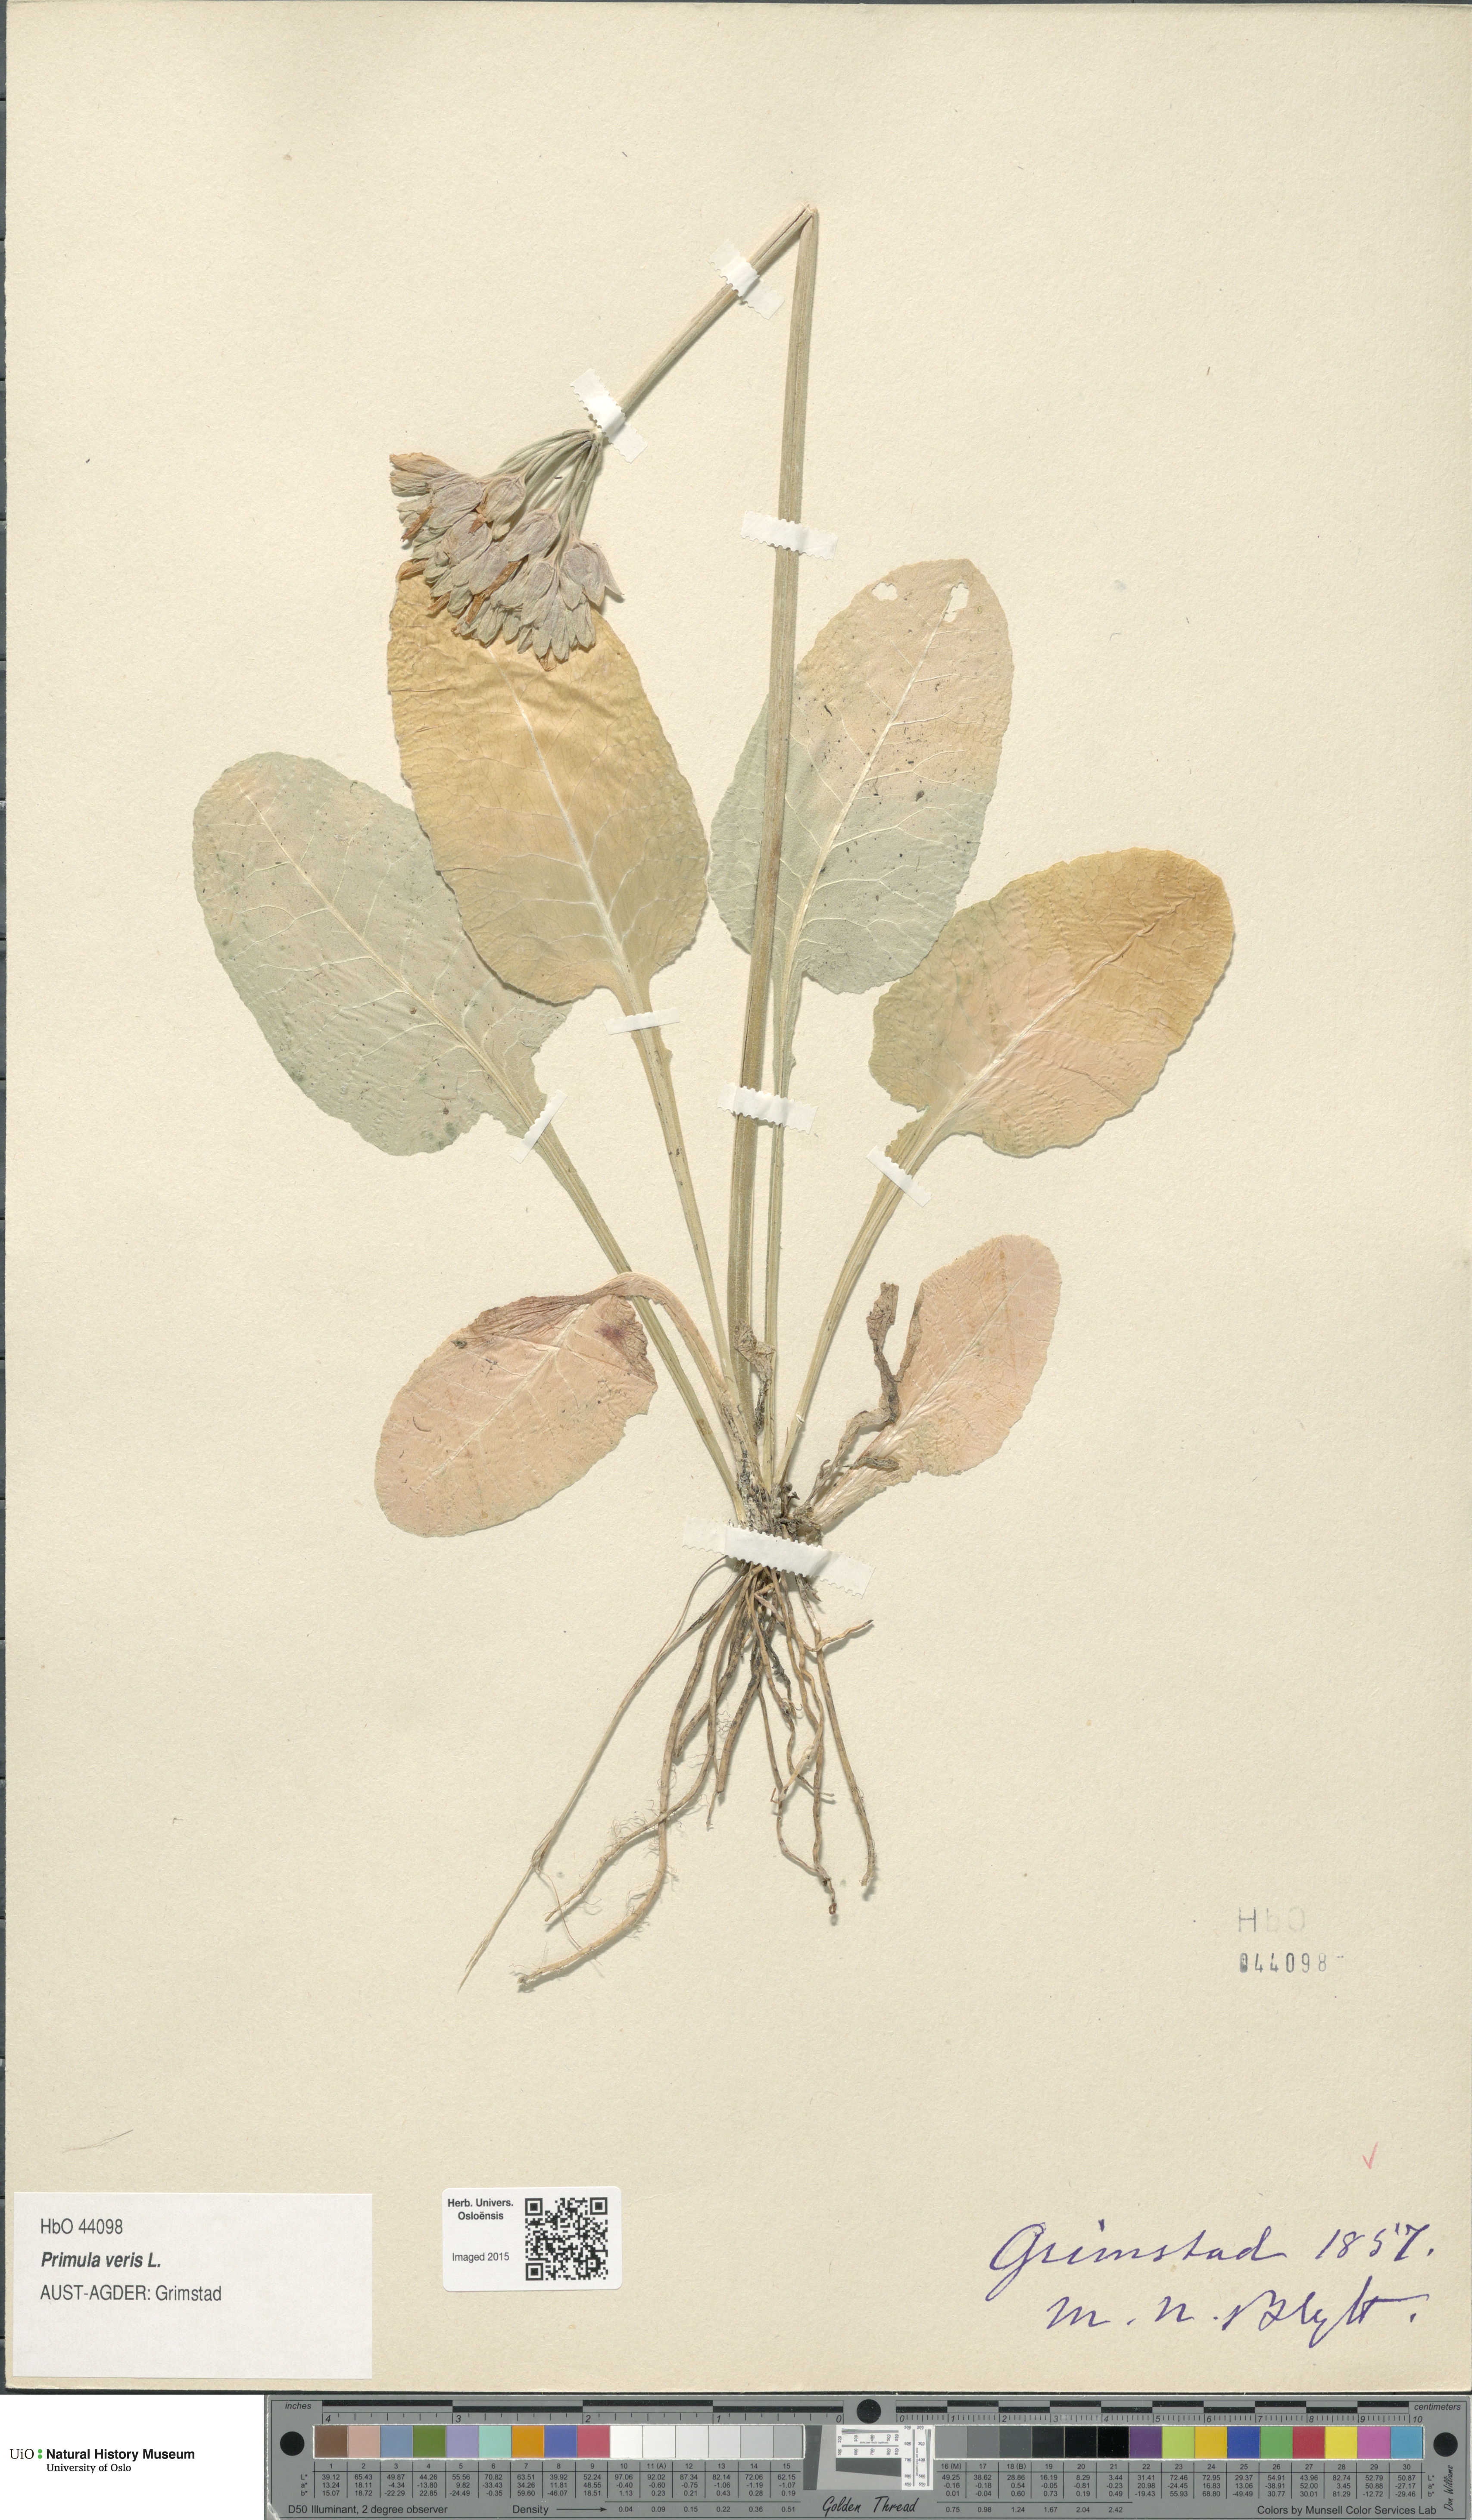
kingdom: Plantae
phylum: Tracheophyta
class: Magnoliopsida
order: Ericales
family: Primulaceae
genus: Primula
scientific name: Primula veris
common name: Cowslip
